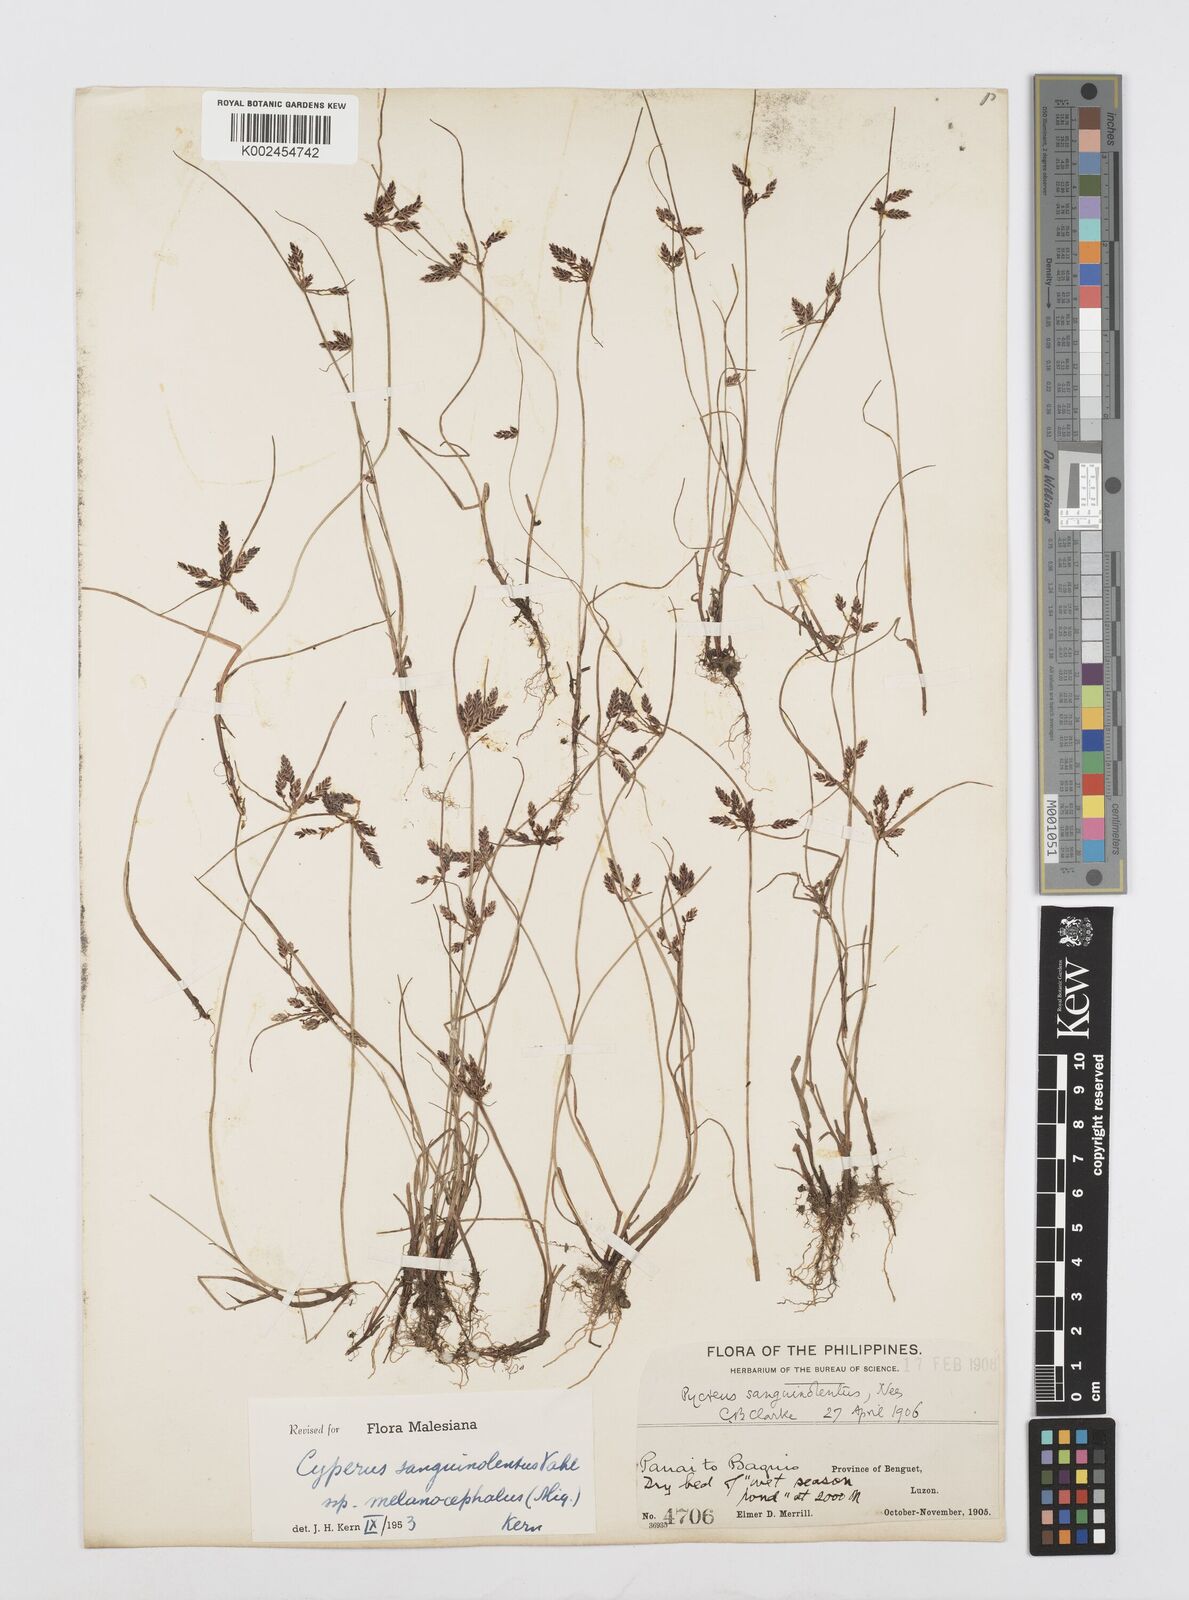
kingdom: Plantae
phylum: Tracheophyta
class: Liliopsida
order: Poales
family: Cyperaceae
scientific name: Cyperaceae
